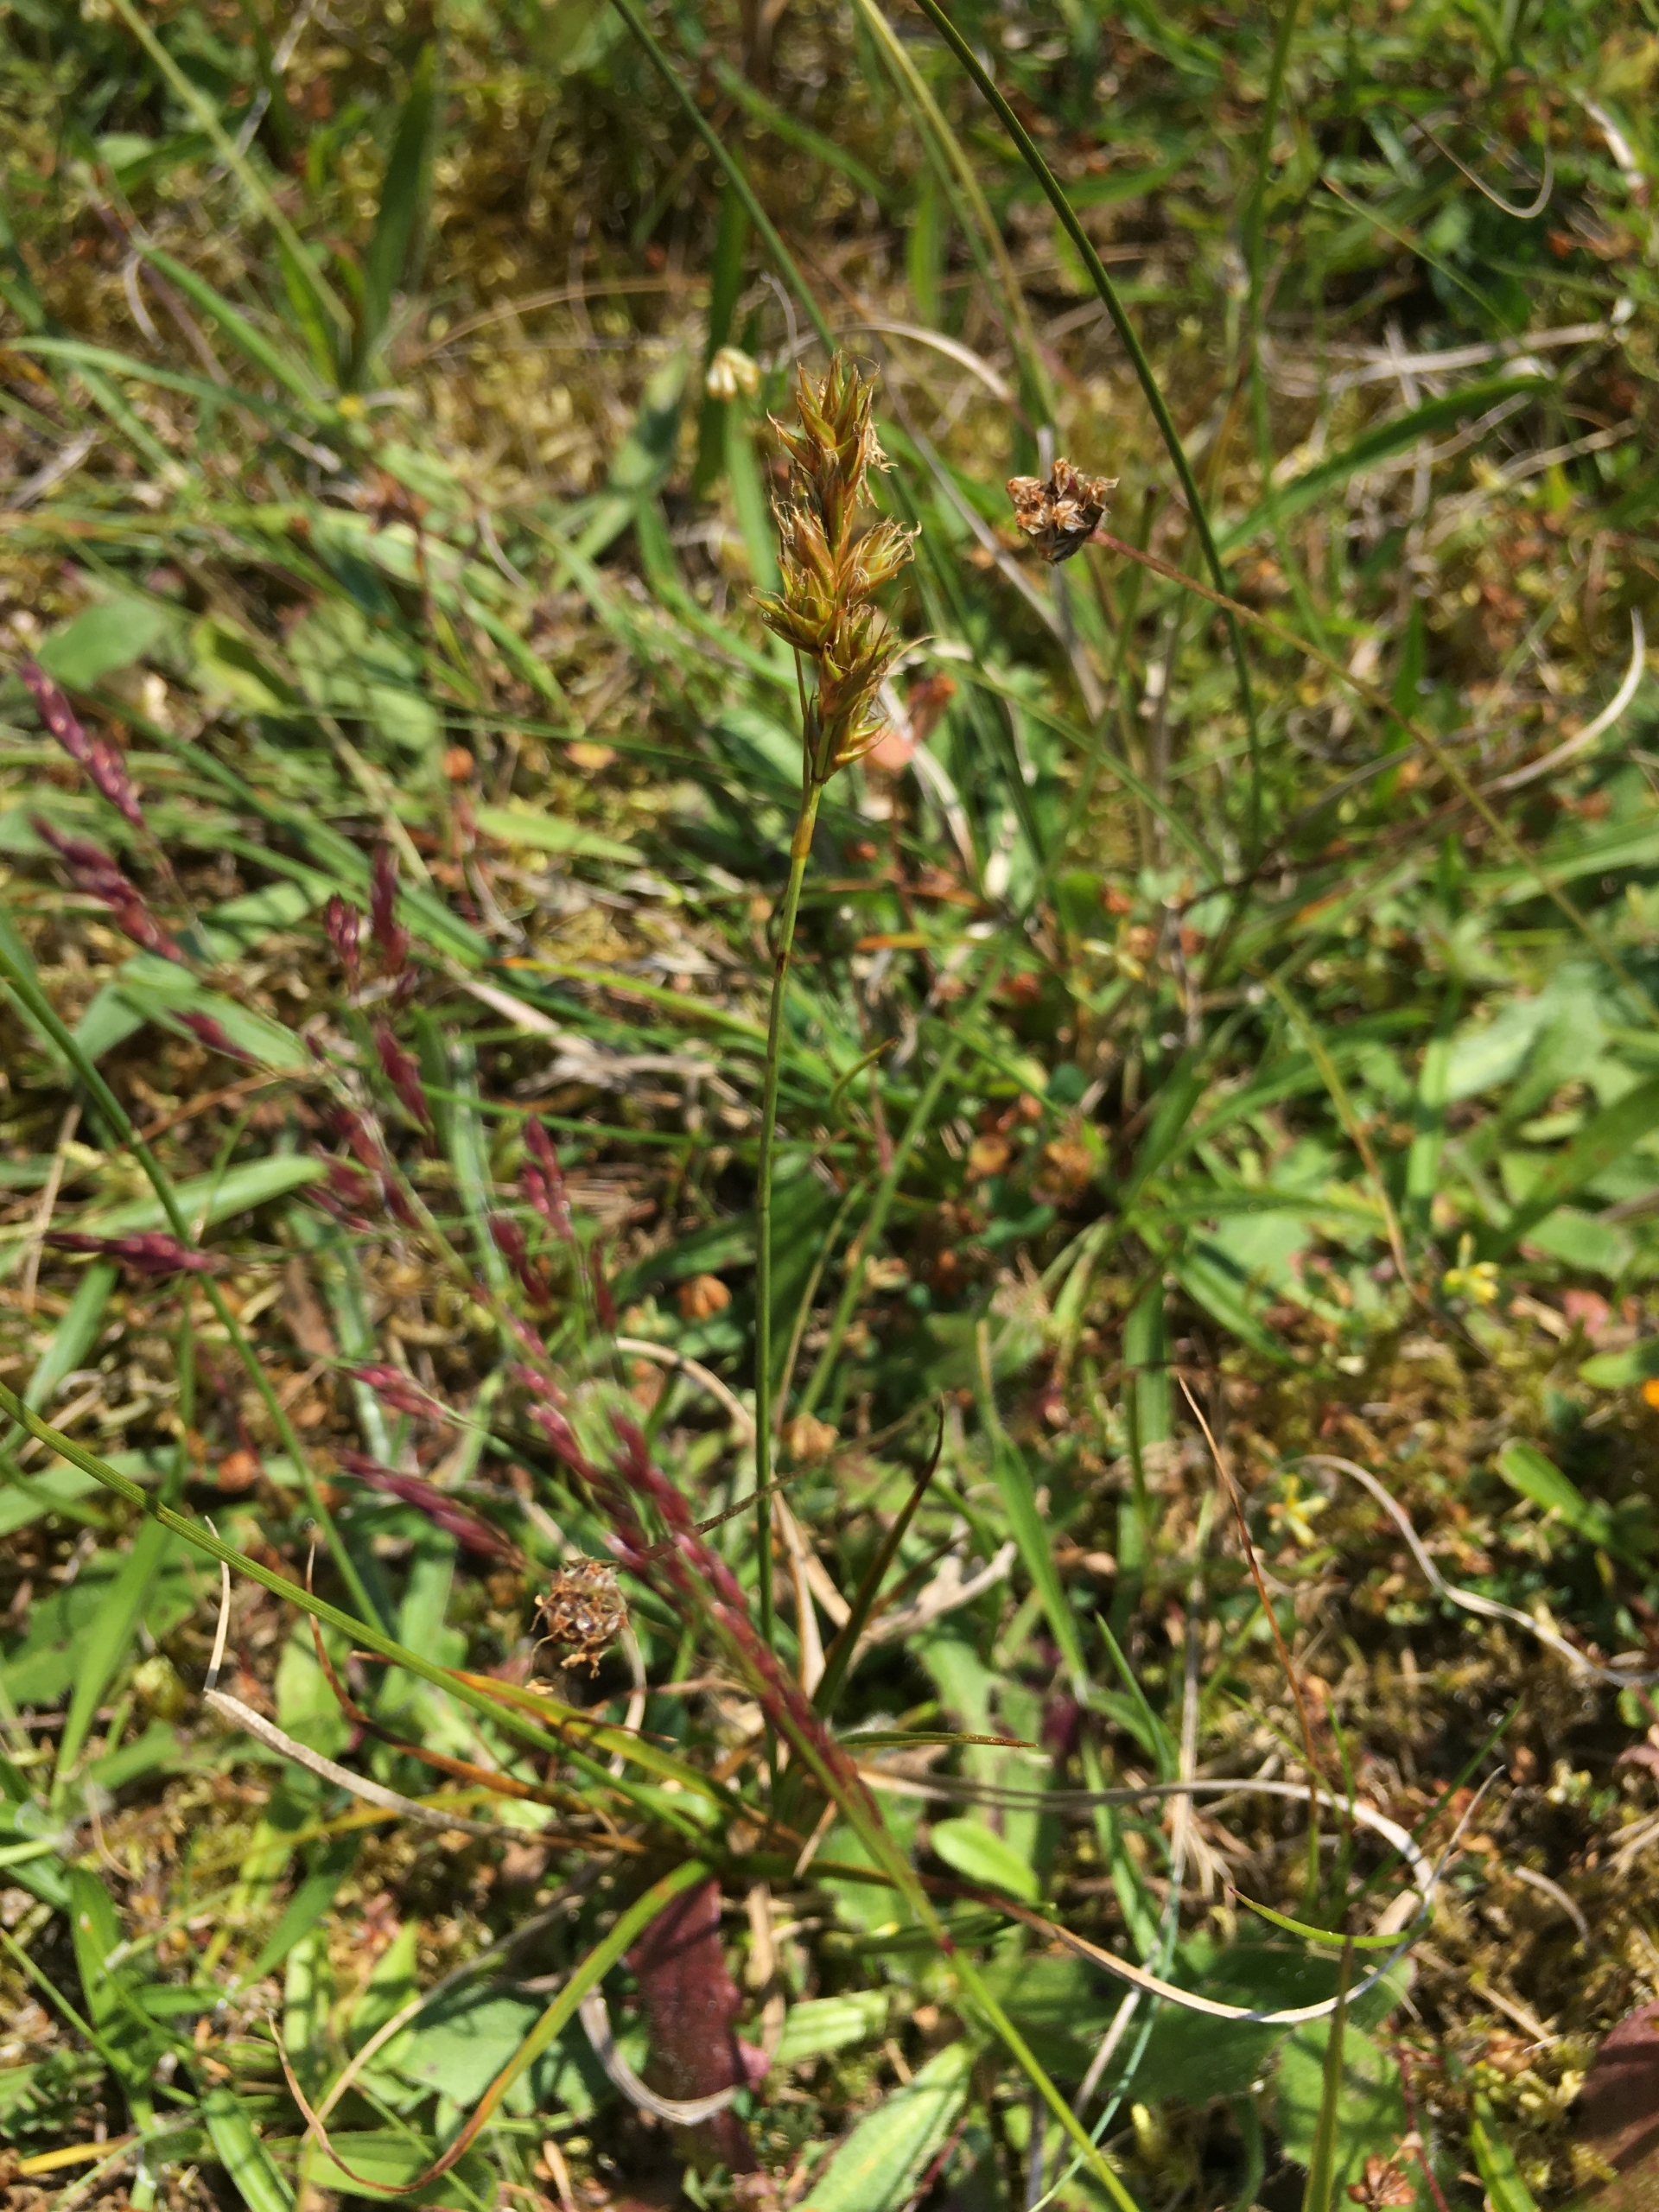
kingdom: Plantae
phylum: Tracheophyta
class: Liliopsida
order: Poales
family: Cyperaceae
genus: Carex
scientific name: Carex arenaria
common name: Sand-star
